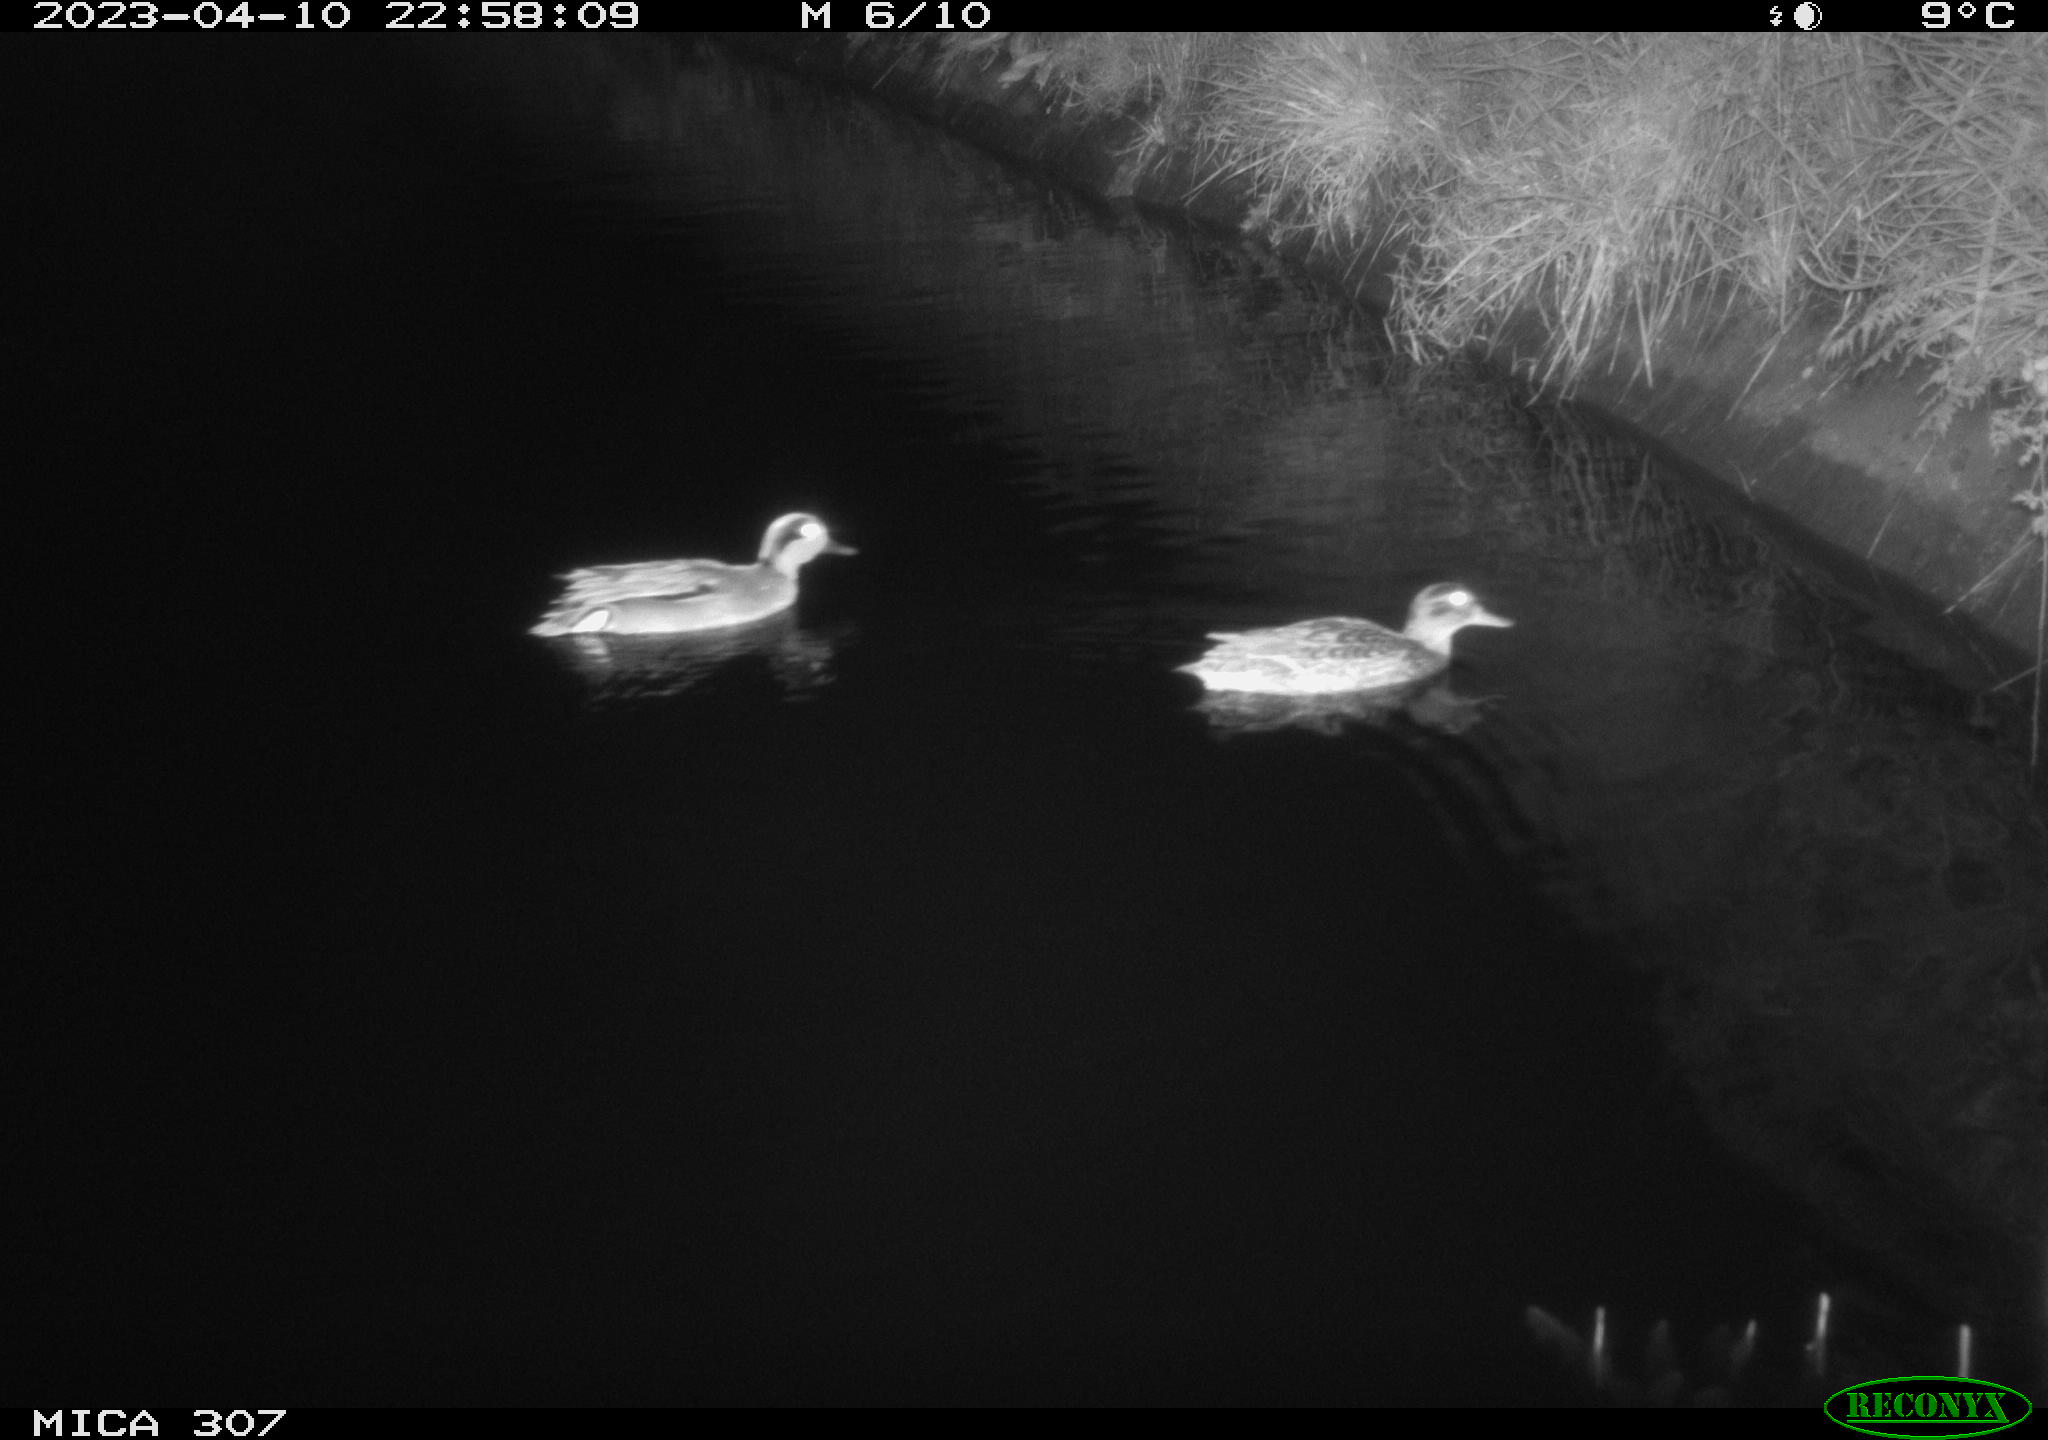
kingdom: Animalia
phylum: Chordata
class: Aves
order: Anseriformes
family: Anatidae
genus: Anas
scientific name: Anas
